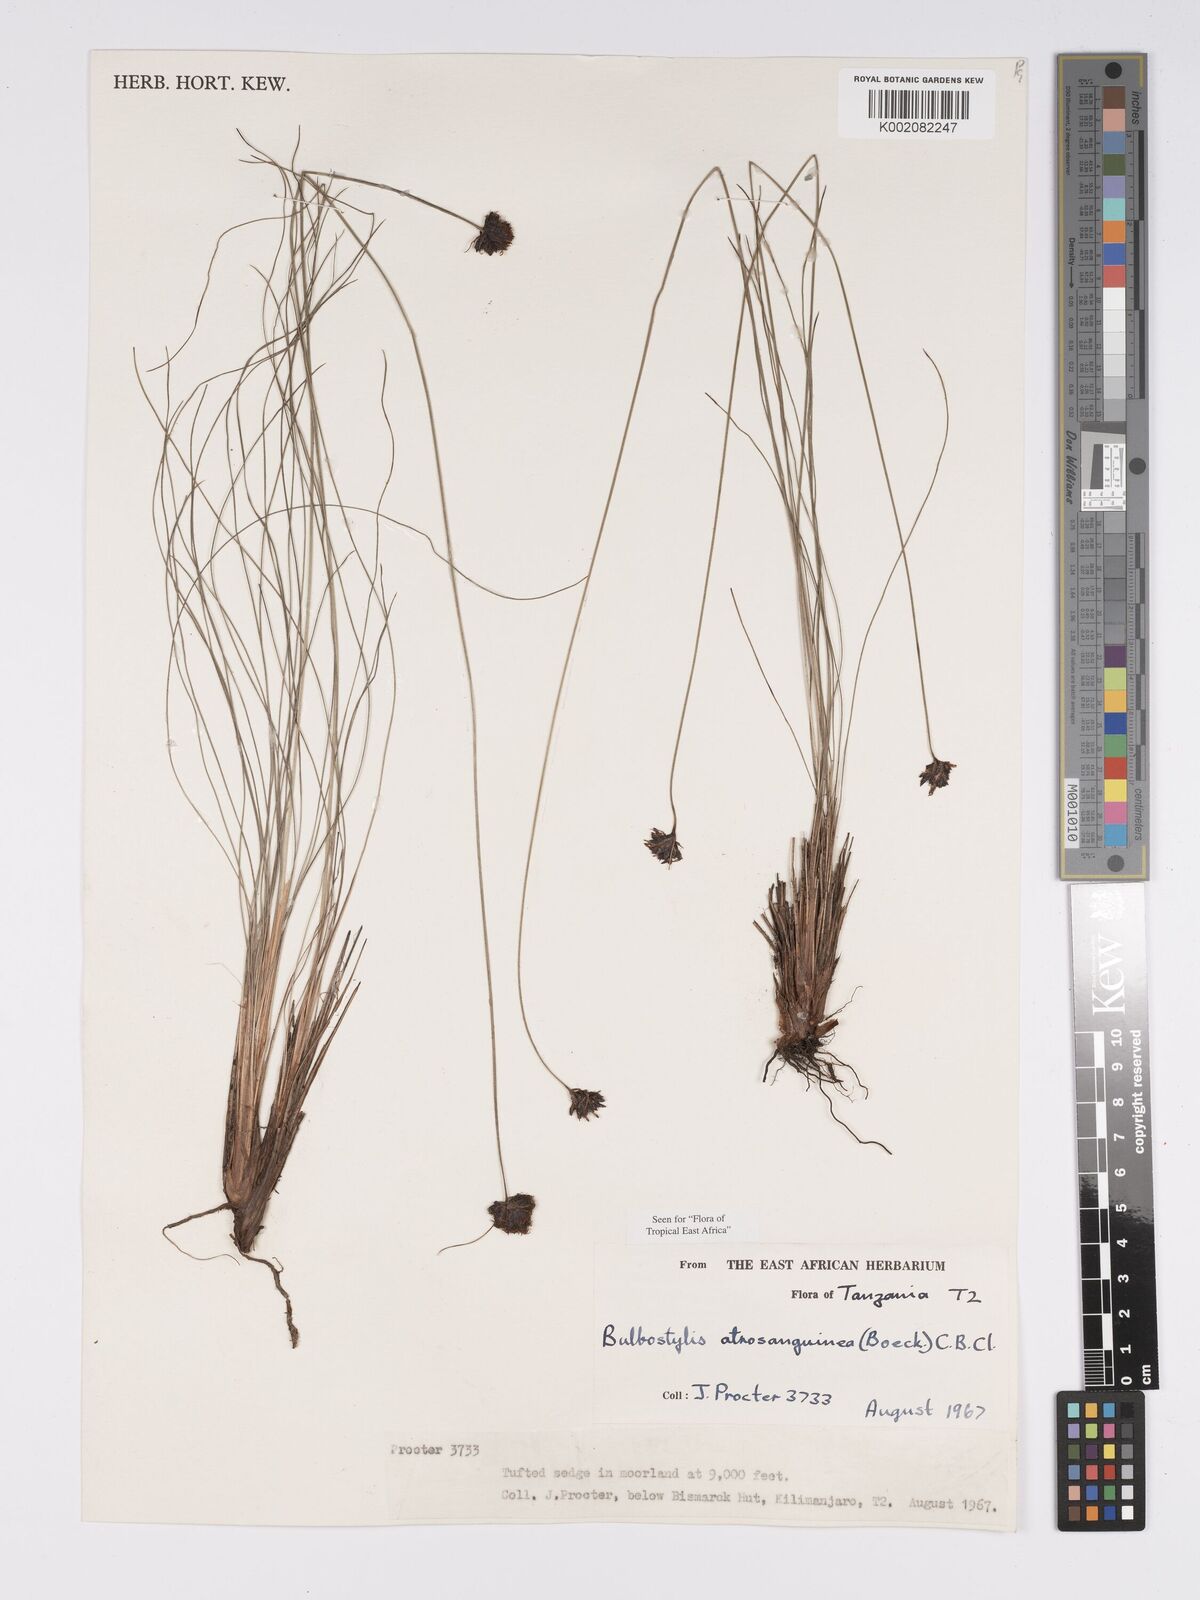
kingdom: Plantae
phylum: Tracheophyta
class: Liliopsida
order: Poales
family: Cyperaceae
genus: Bulbostylis
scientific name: Bulbostylis atrosanguinea
